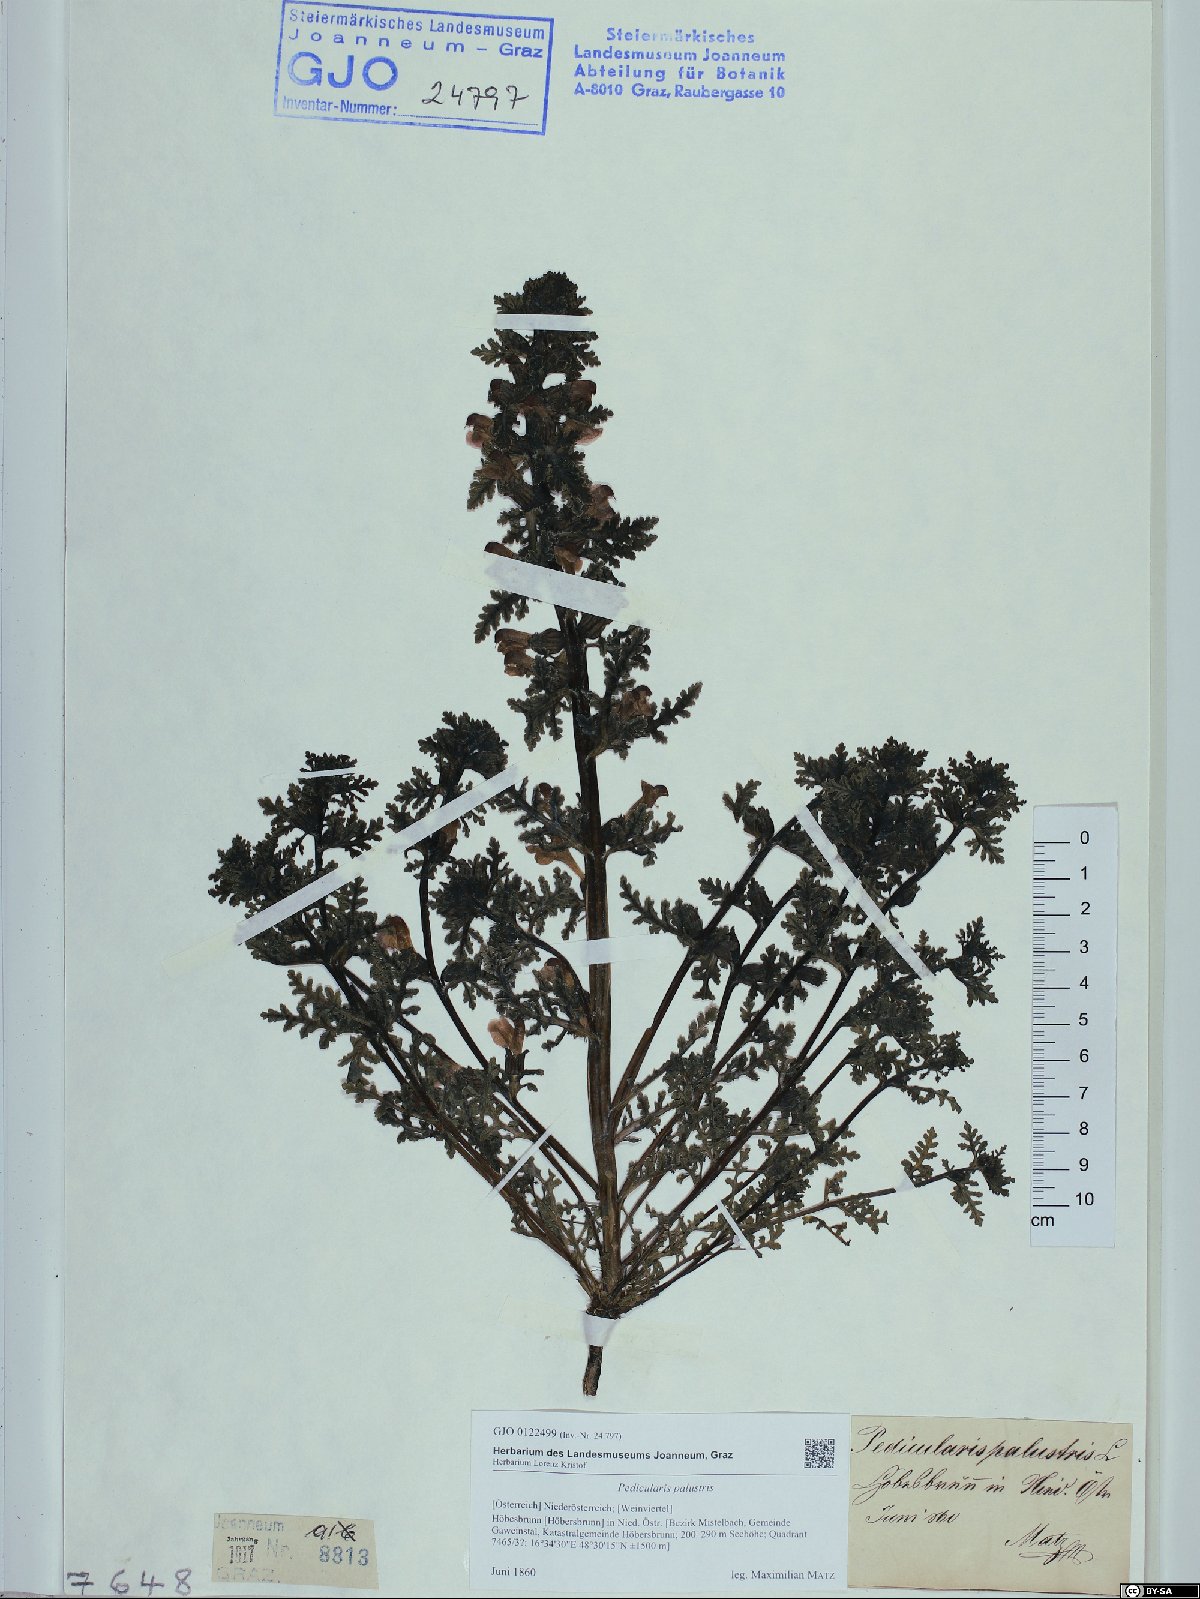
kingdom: Plantae
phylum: Tracheophyta
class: Magnoliopsida
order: Lamiales
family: Orobanchaceae
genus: Pedicularis
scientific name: Pedicularis palustris
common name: Marsh lousewort
